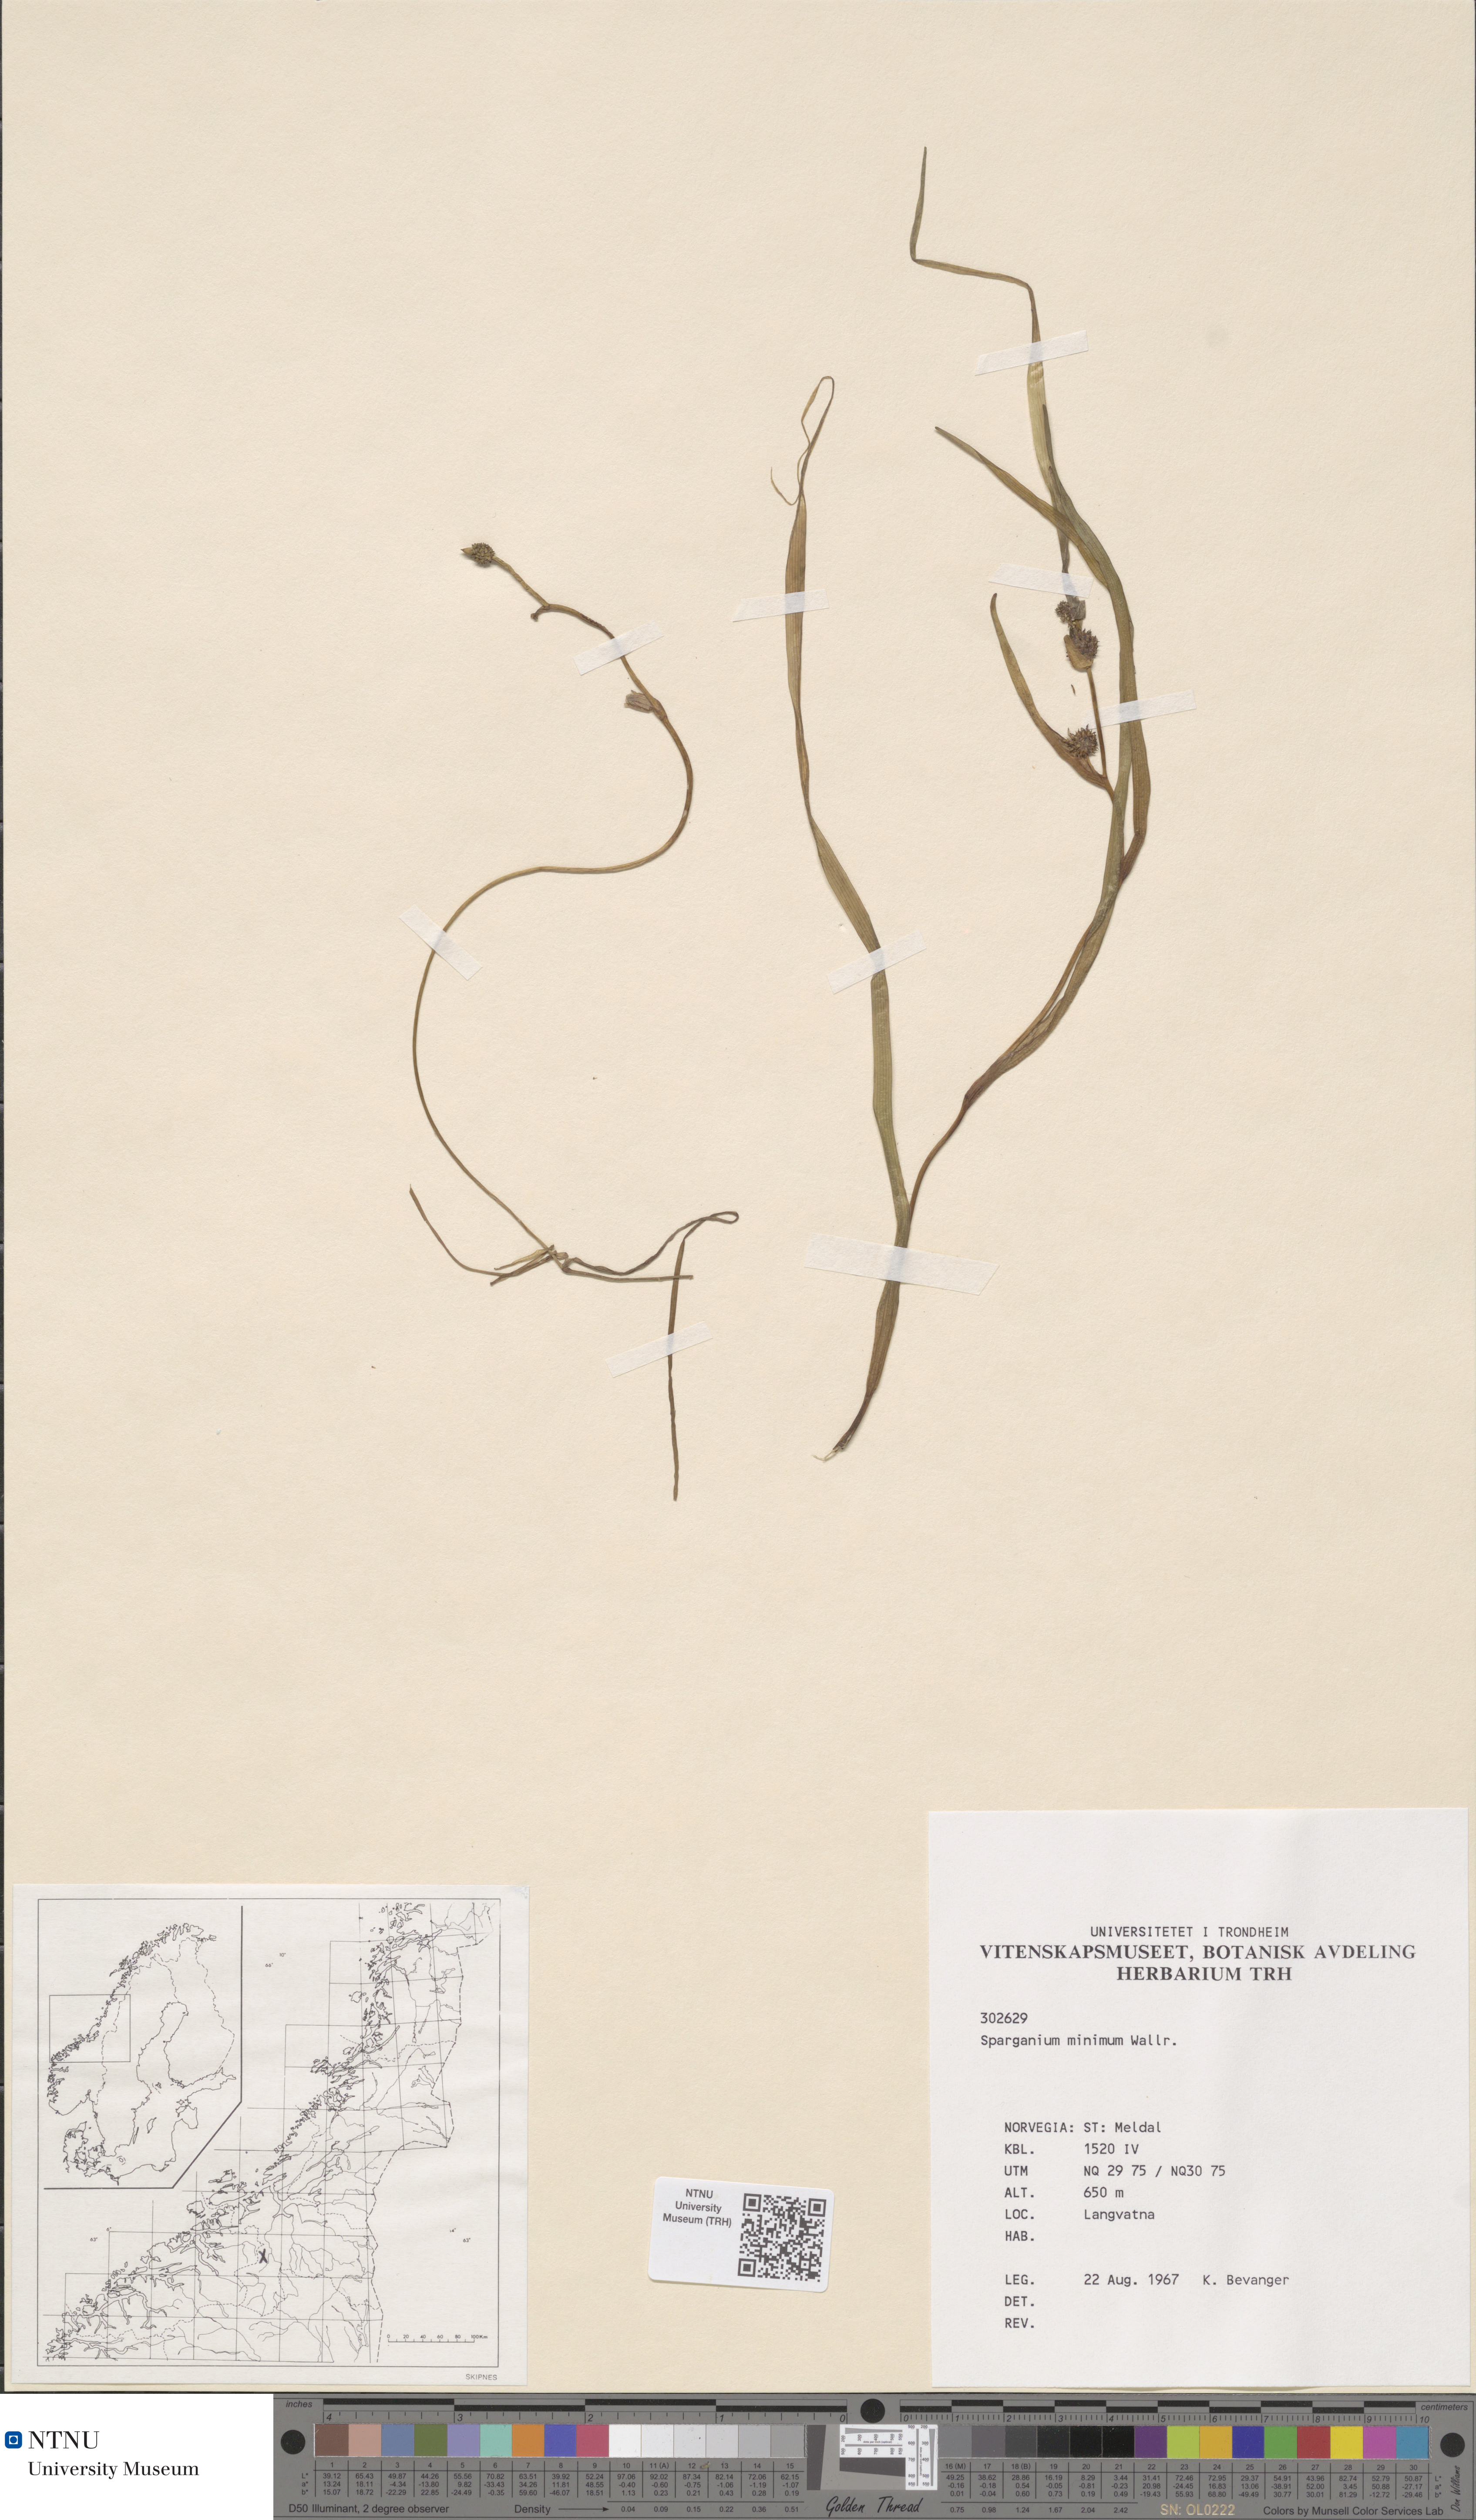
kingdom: Plantae
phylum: Tracheophyta
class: Liliopsida
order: Poales
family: Typhaceae
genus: Sparganium
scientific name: Sparganium natans
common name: Least bur-reed
